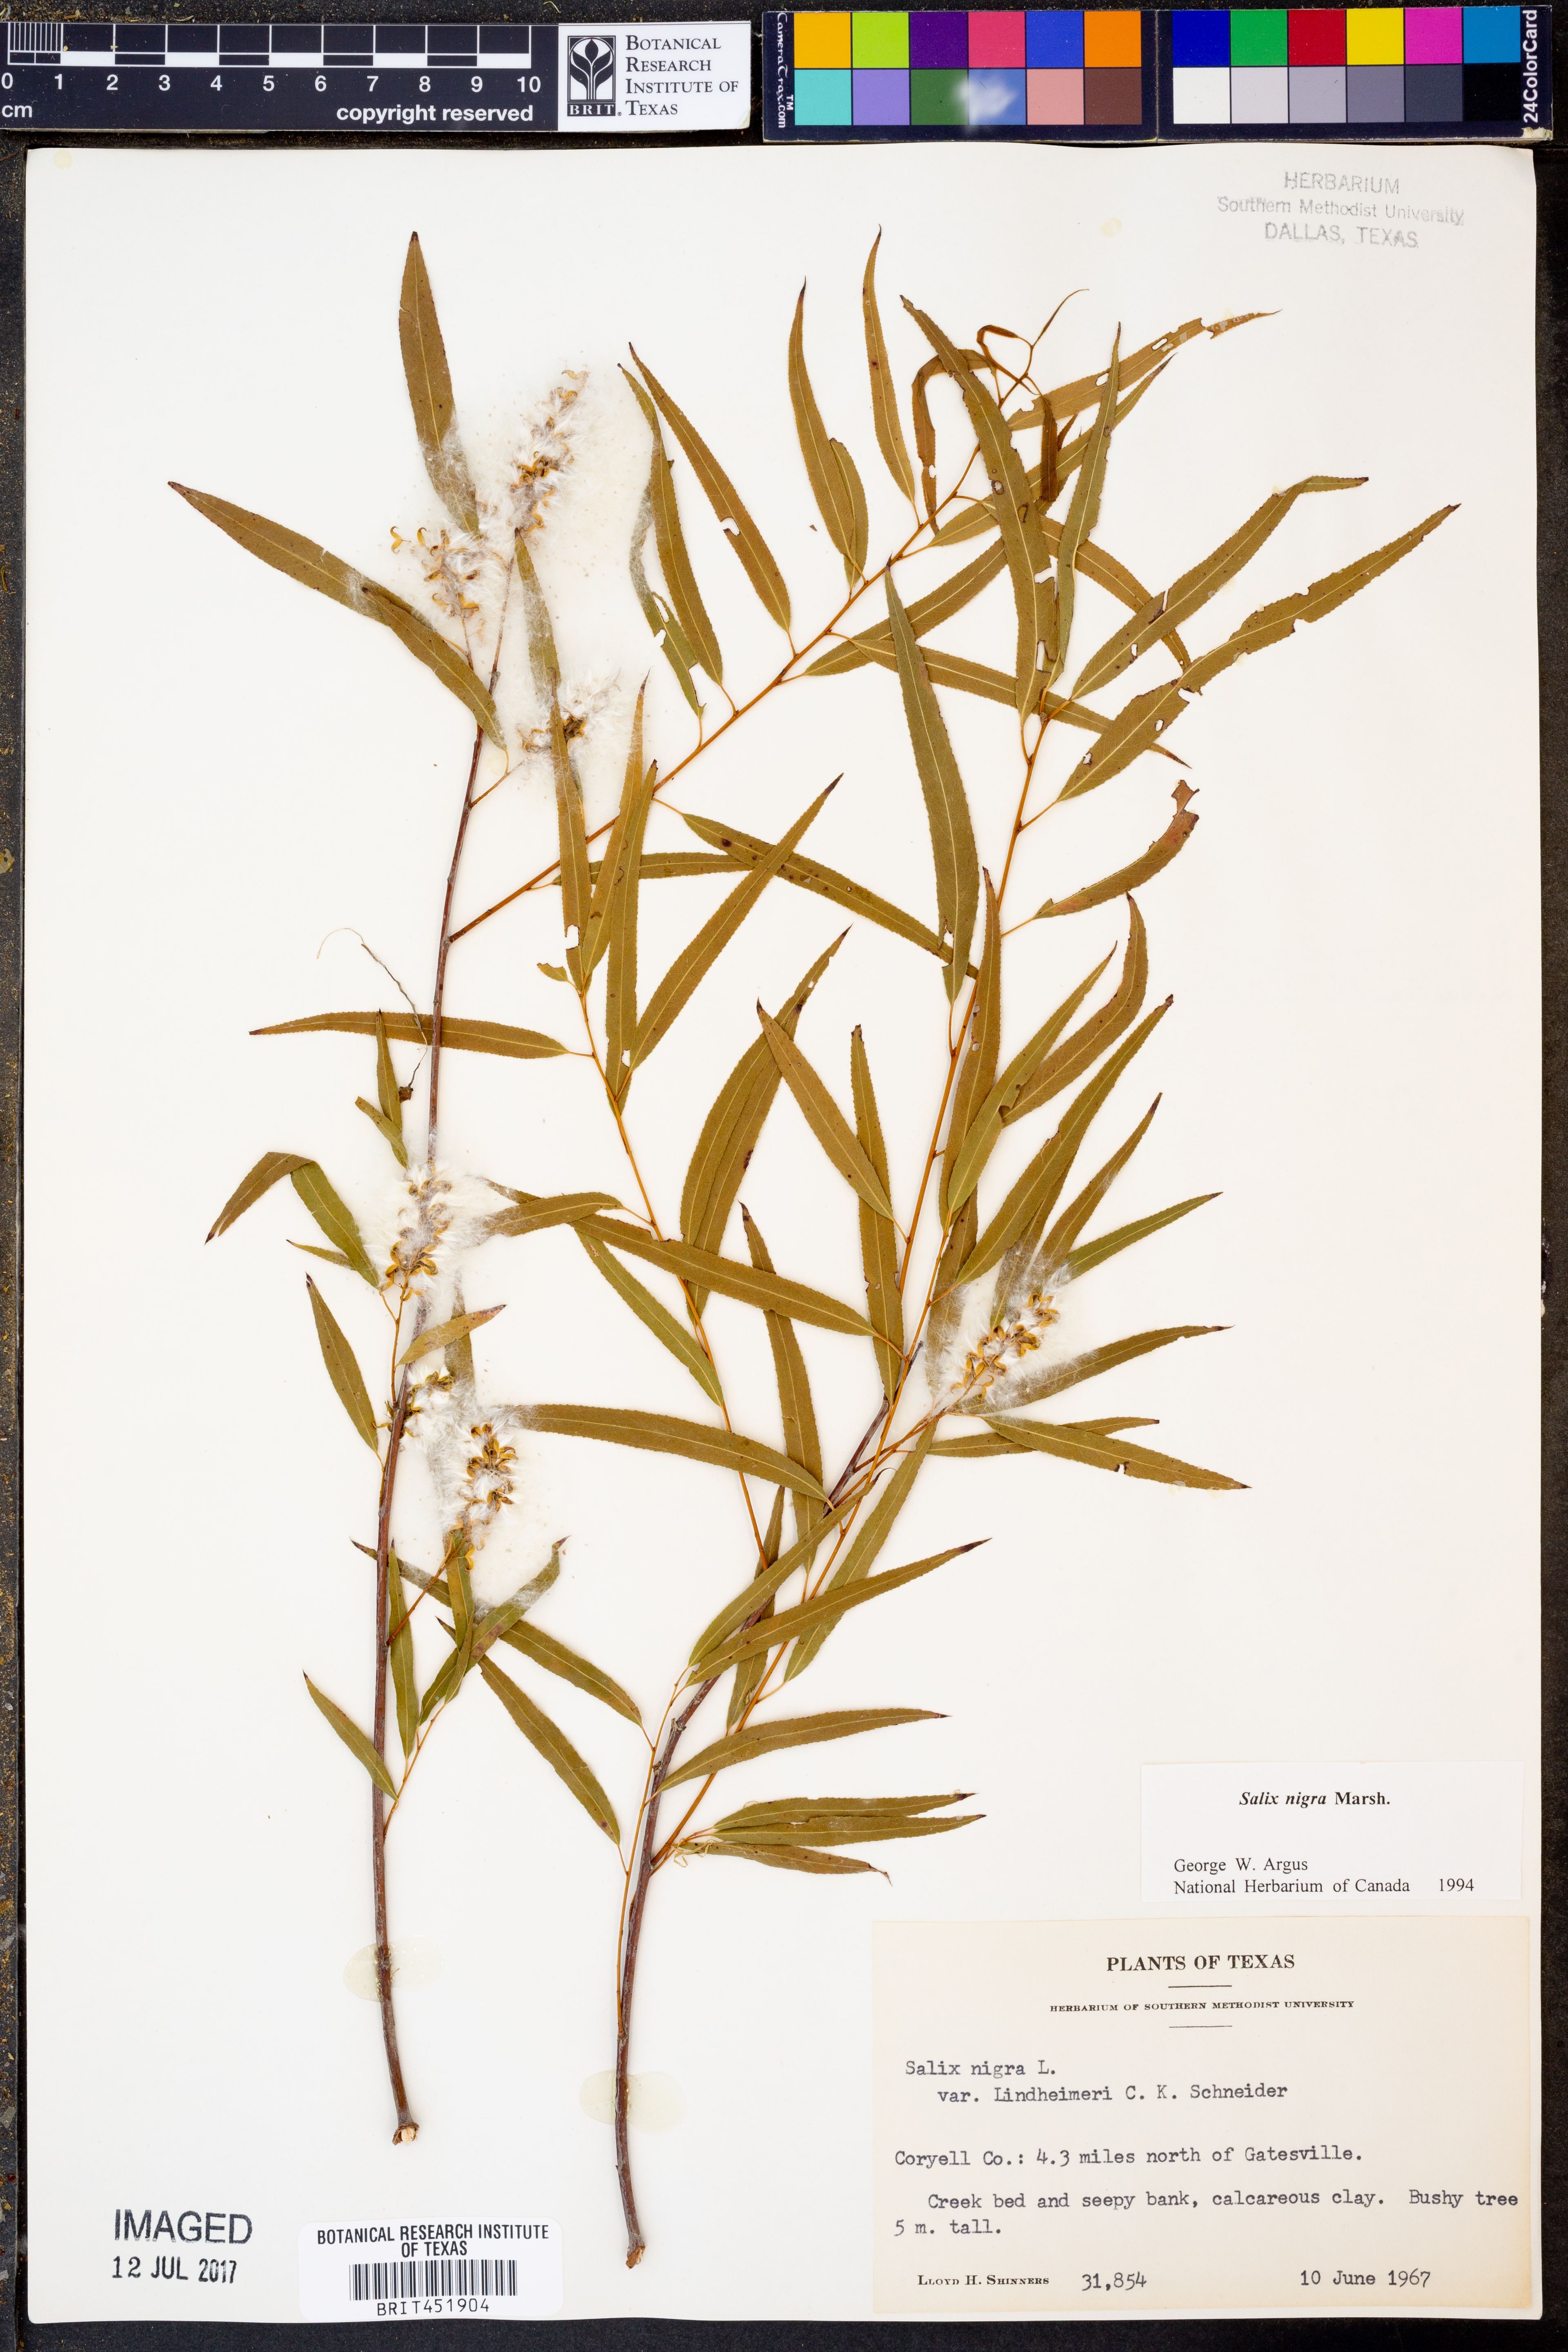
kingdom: Plantae
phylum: Tracheophyta
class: Magnoliopsida
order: Malpighiales
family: Salicaceae
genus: Salix
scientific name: Salix nigra
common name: Black willow
